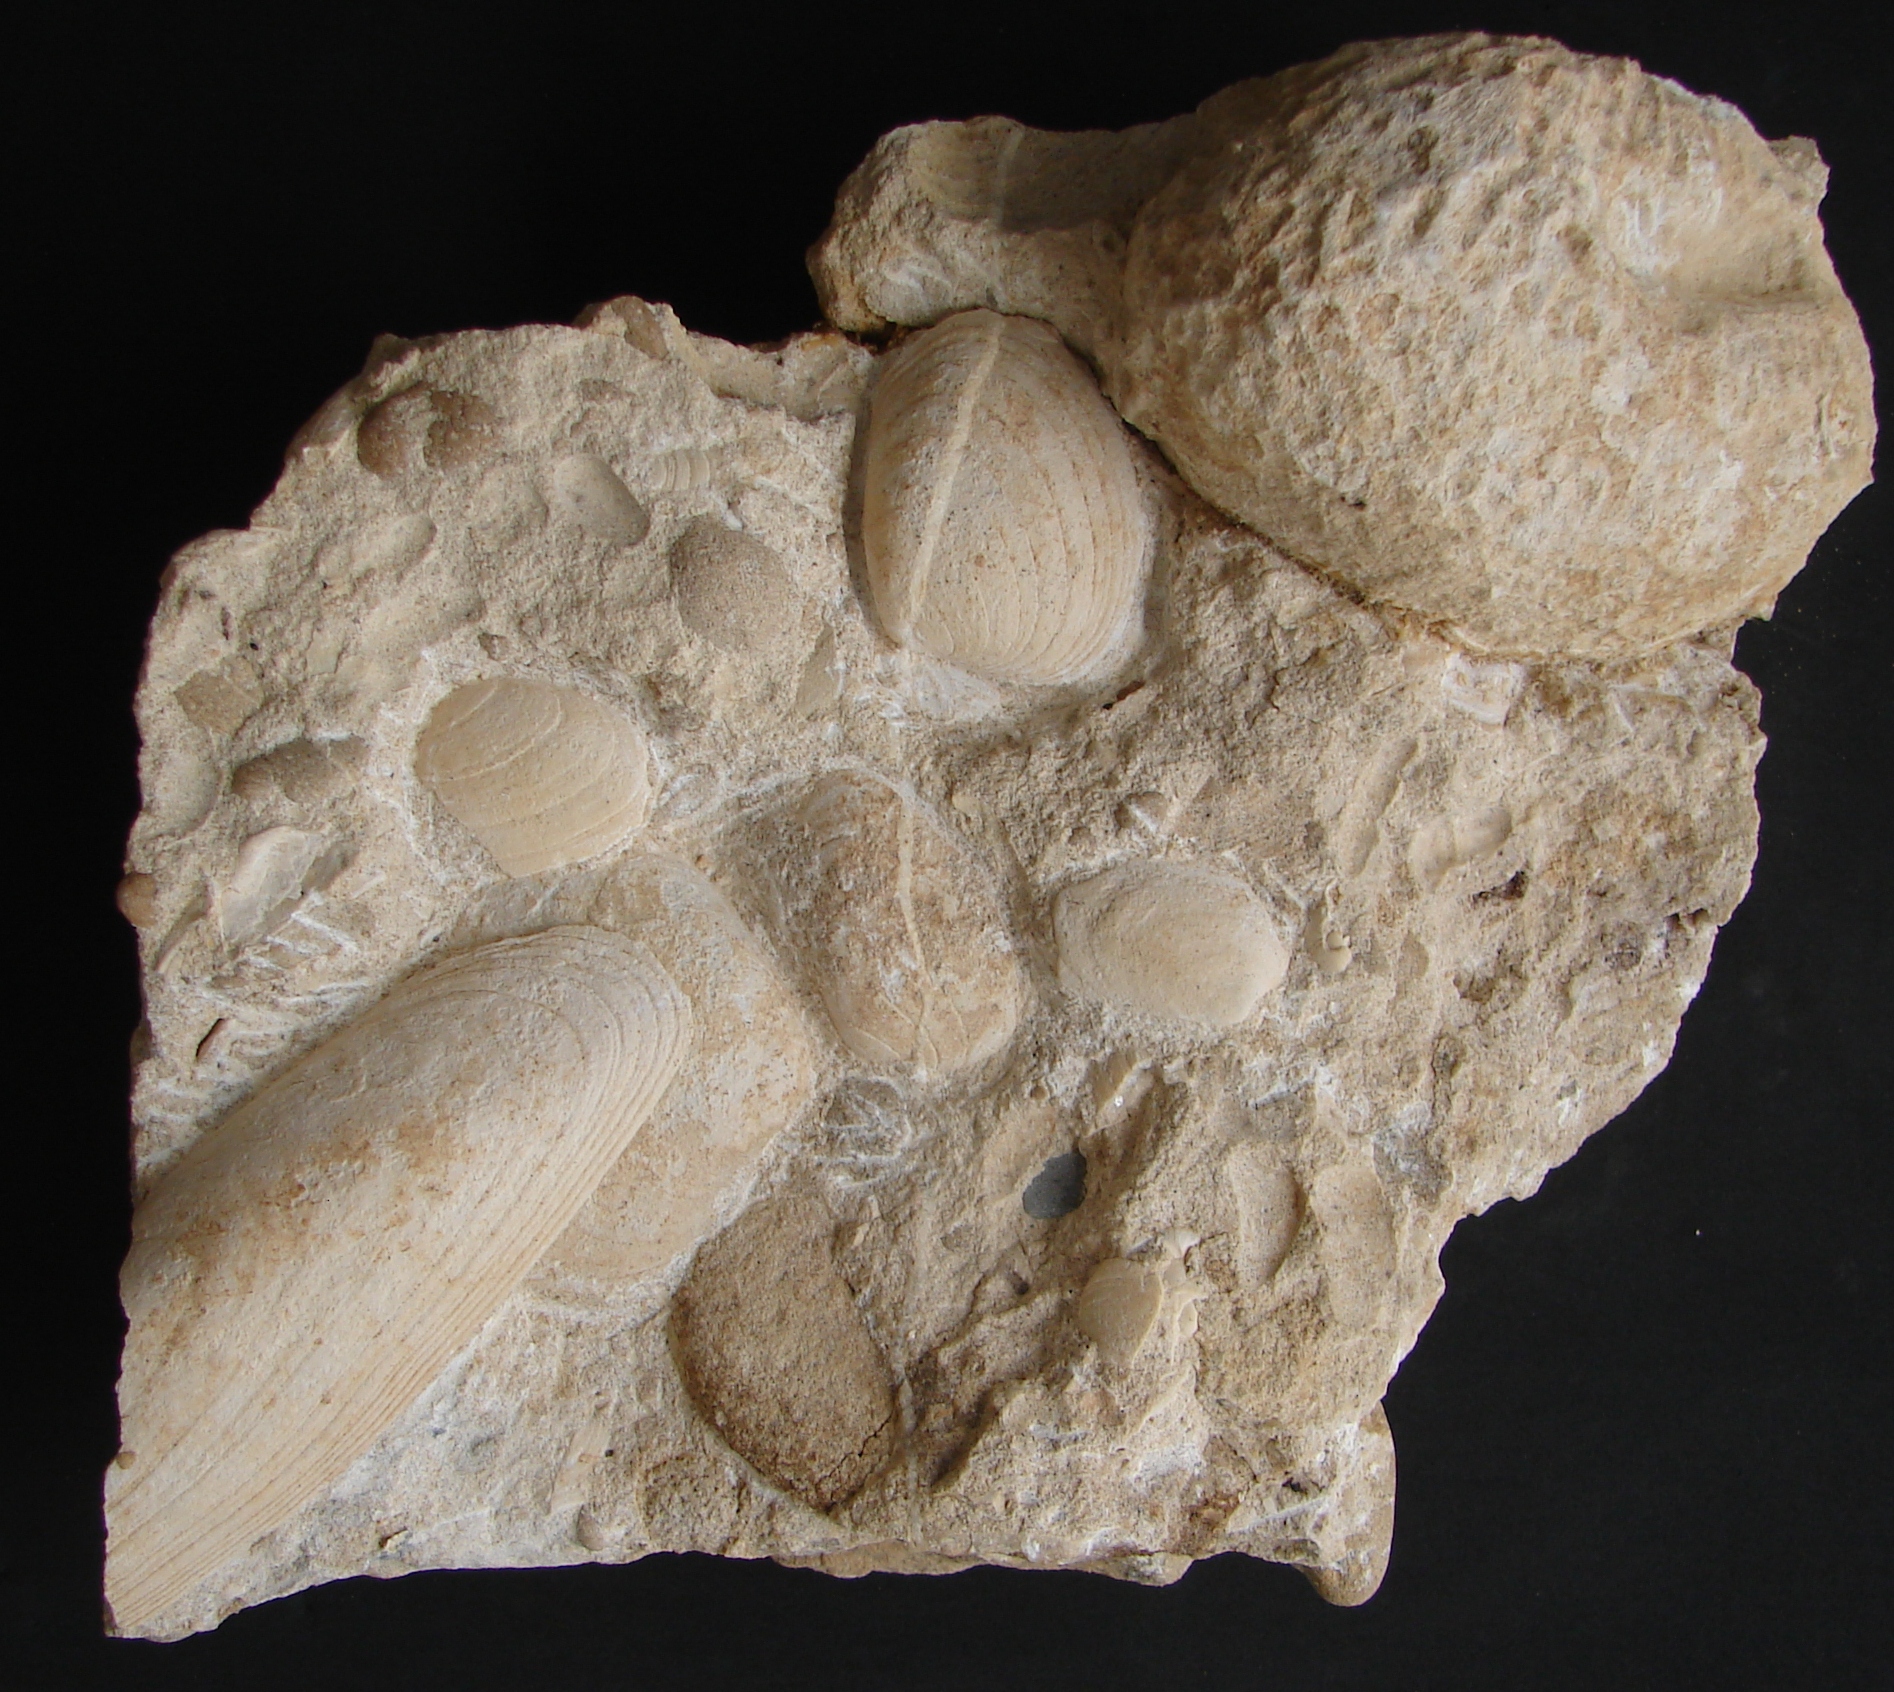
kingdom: Animalia
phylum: Mollusca
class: Bivalvia
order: Carditida
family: Cardiniidae
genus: Cardinia
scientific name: Cardinia
